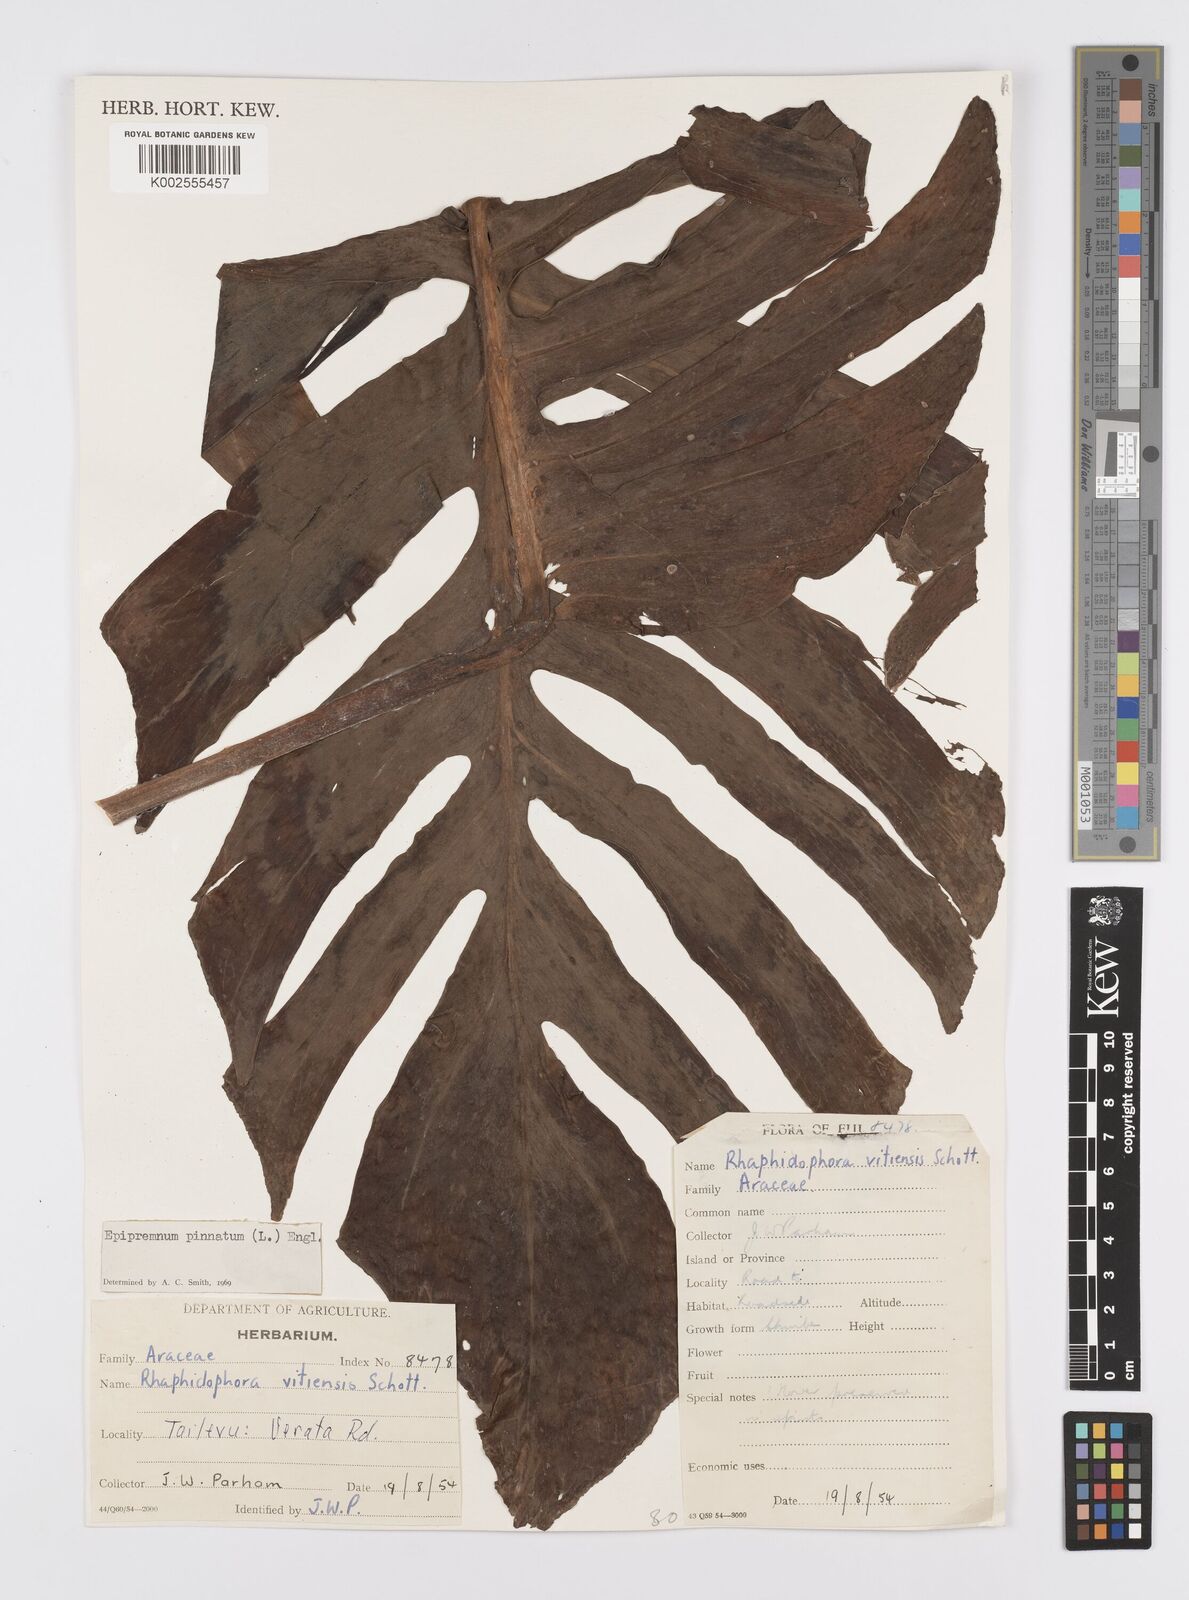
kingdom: Plantae
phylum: Tracheophyta
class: Liliopsida
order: Alismatales
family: Araceae
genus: Epipremnum
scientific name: Epipremnum pinnatum
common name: Centipede tongavine
